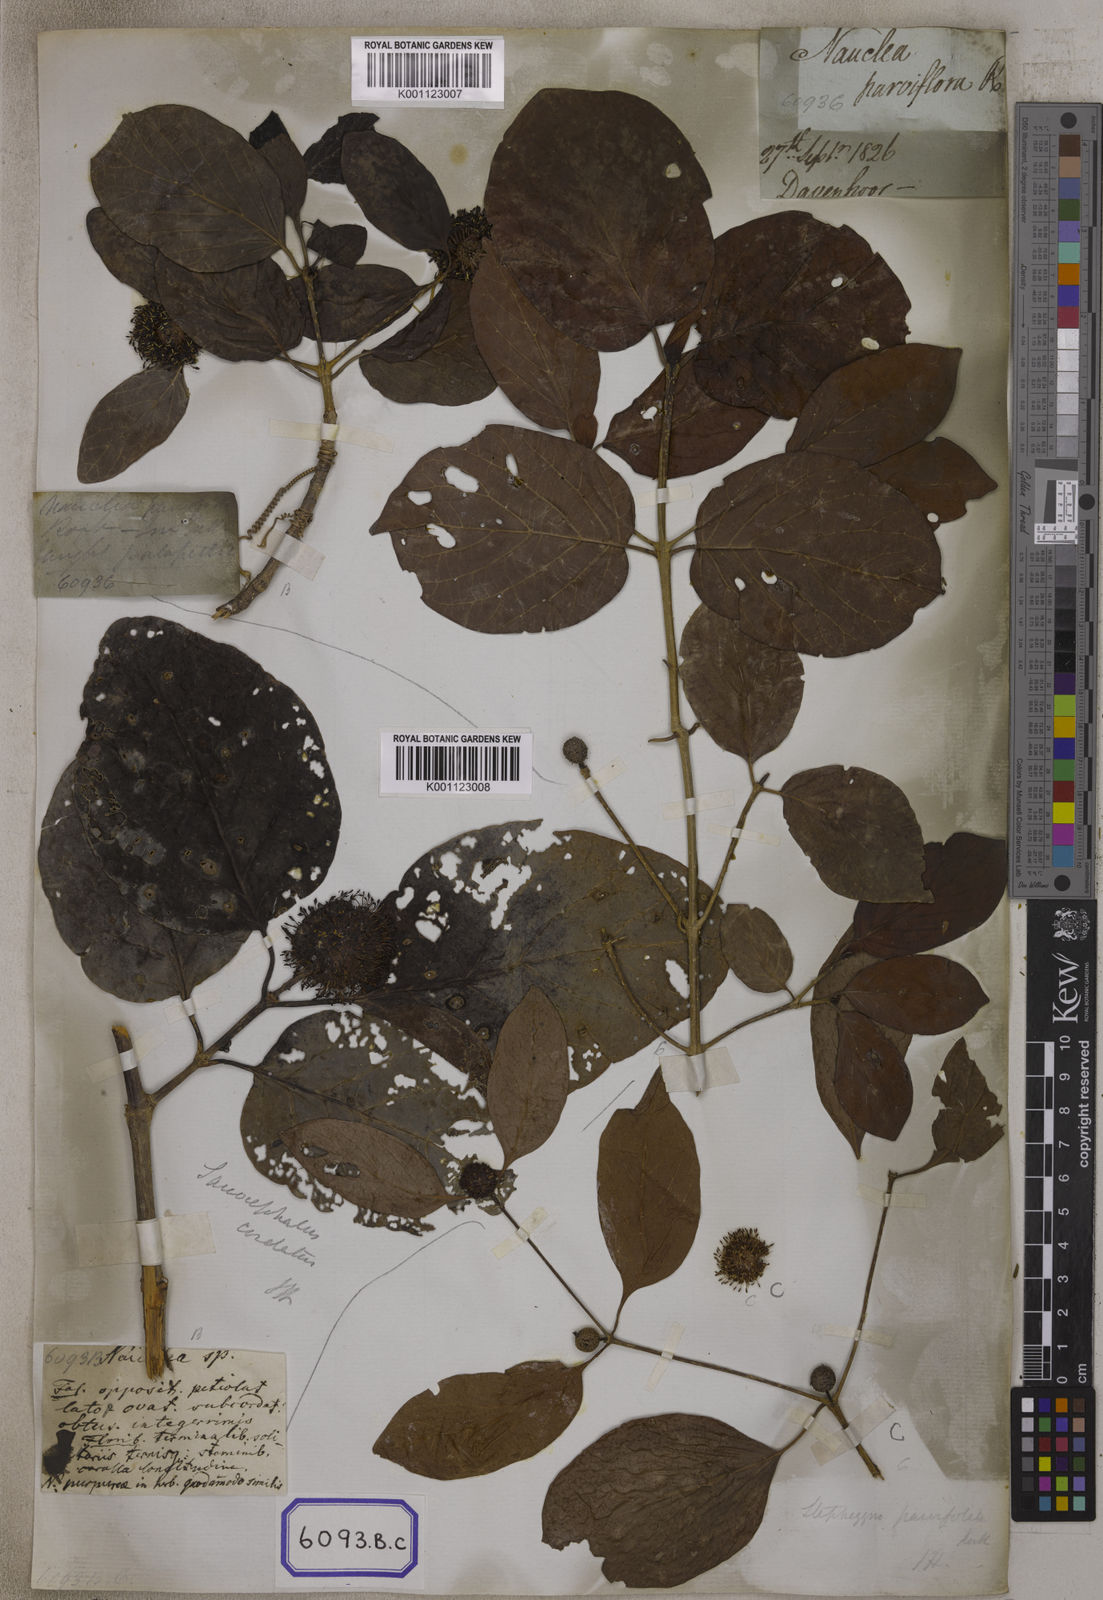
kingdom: Plantae
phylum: Tracheophyta
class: Magnoliopsida
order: Gentianales
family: Rubiaceae
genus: Nauclea
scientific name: Nauclea
